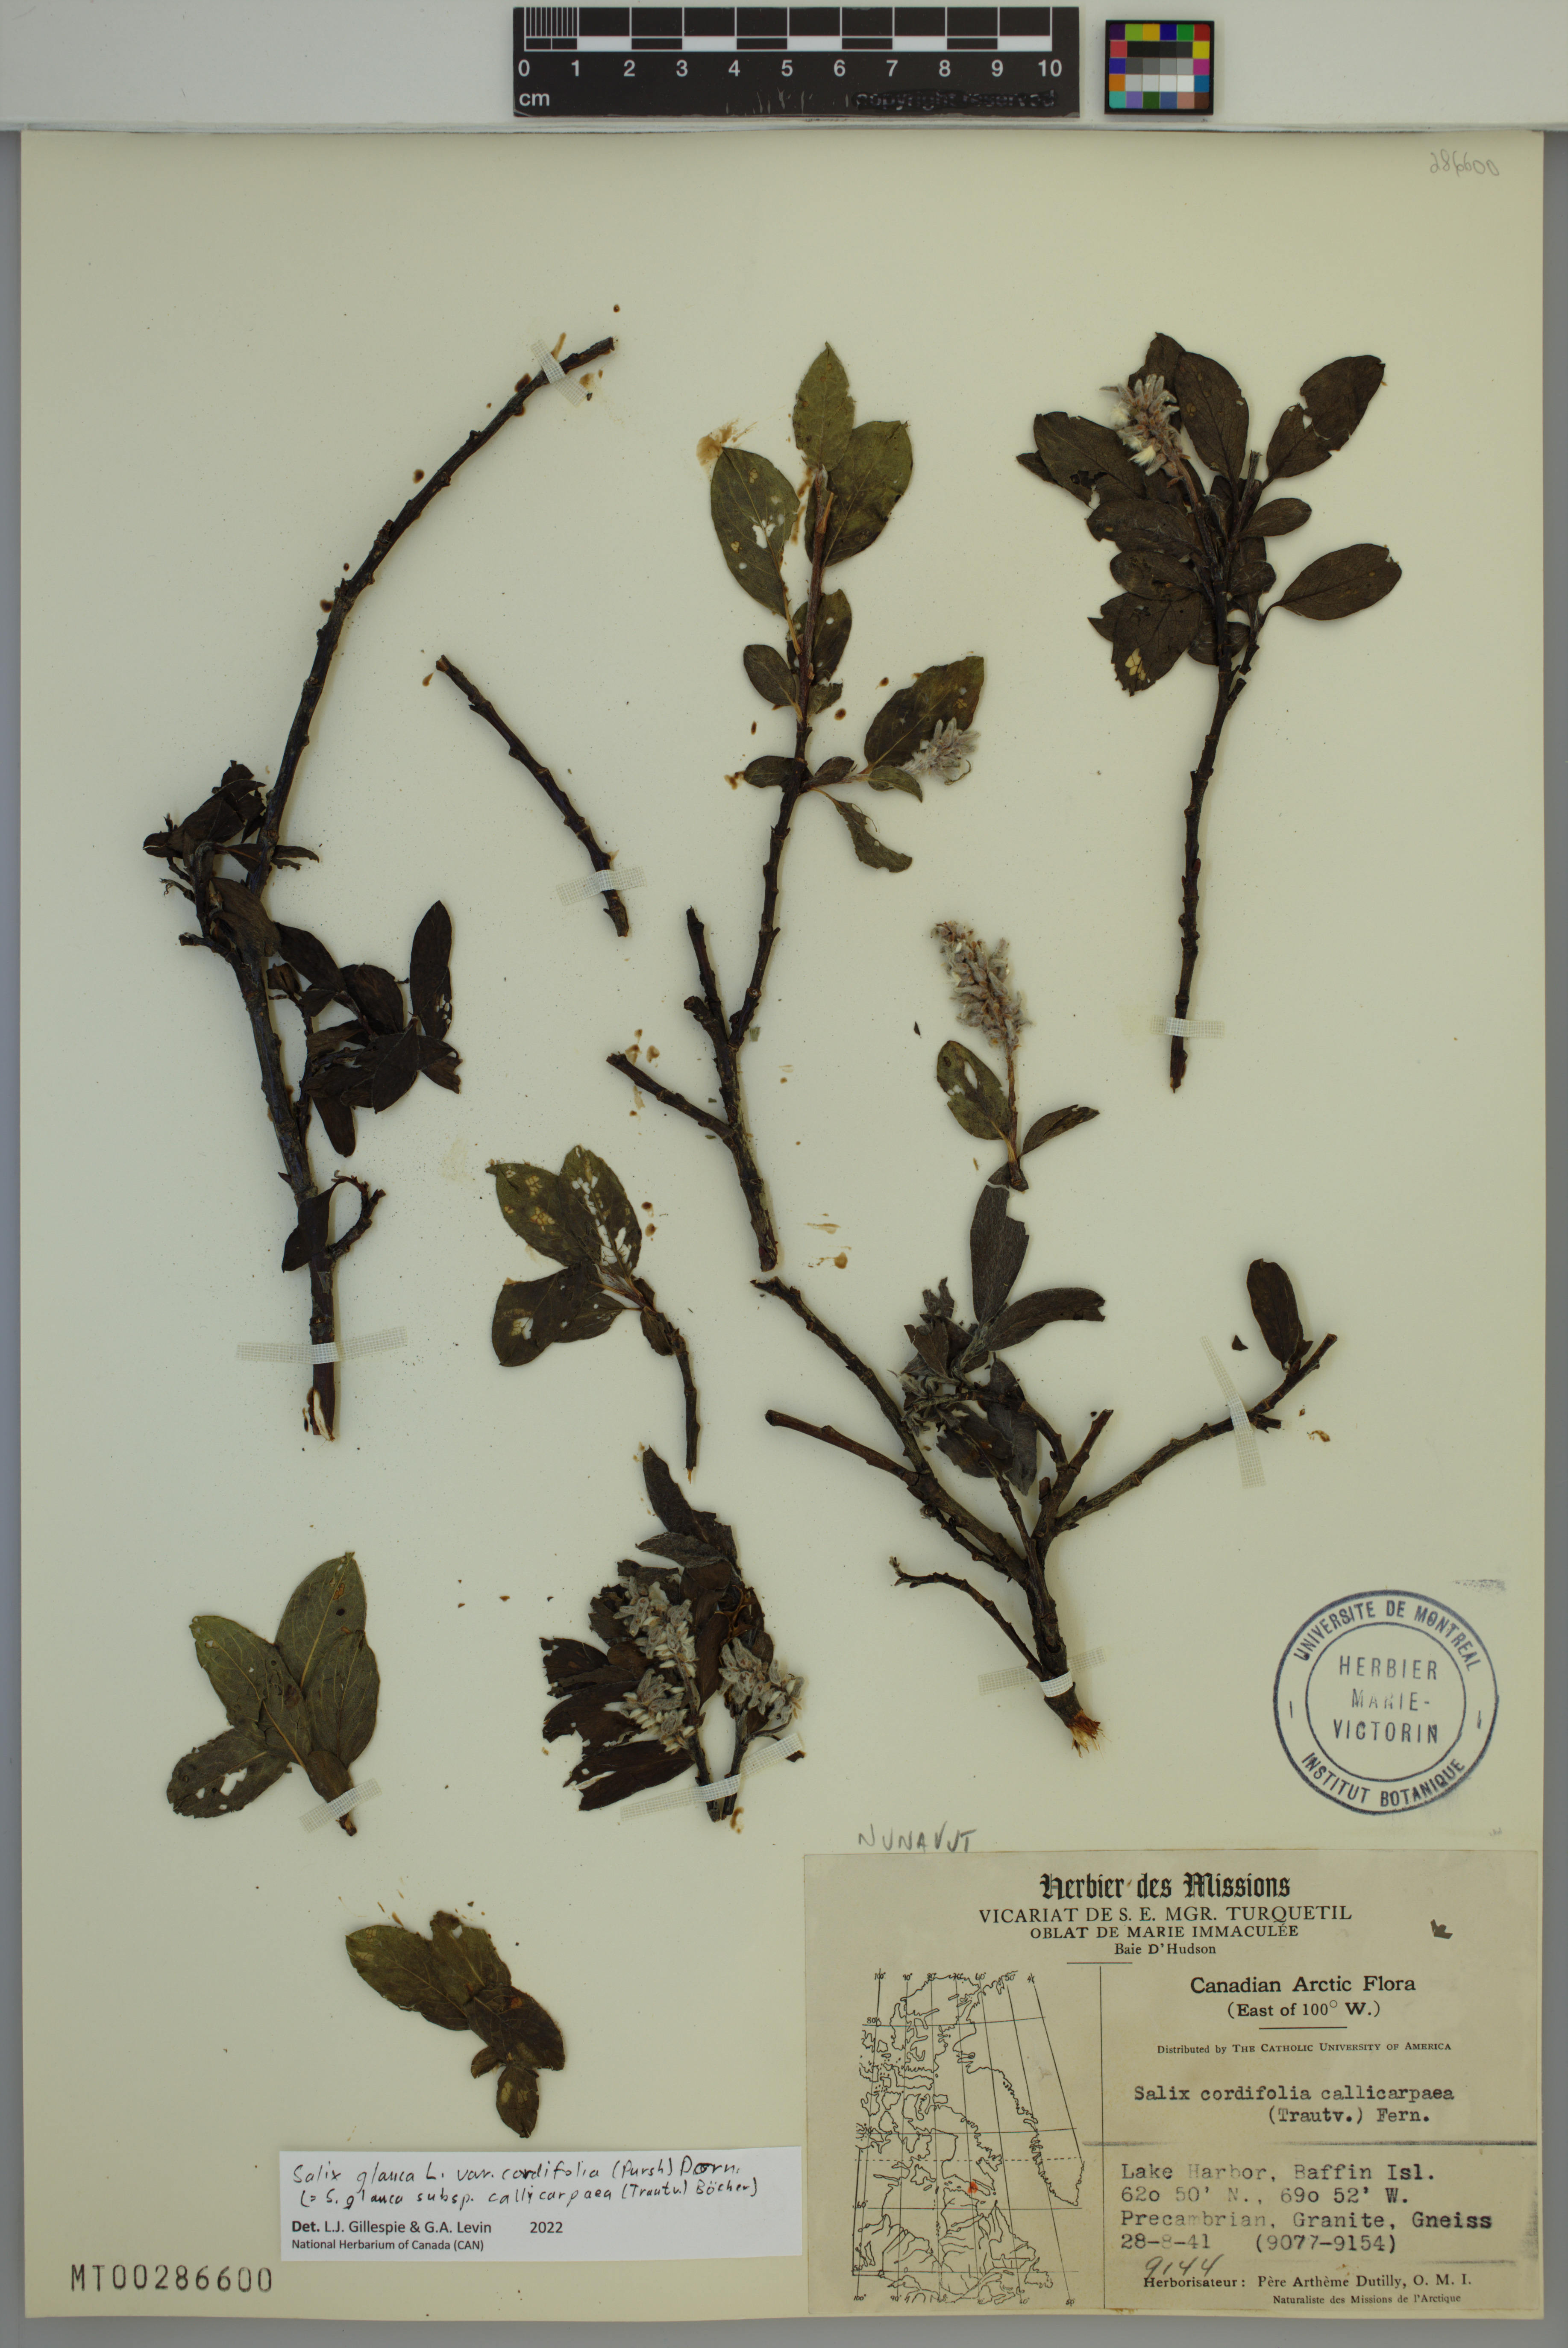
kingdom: Plantae
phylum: Tracheophyta
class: Magnoliopsida
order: Malpighiales
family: Salicaceae
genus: Salix
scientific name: Salix glauca
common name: Glaucous willow
